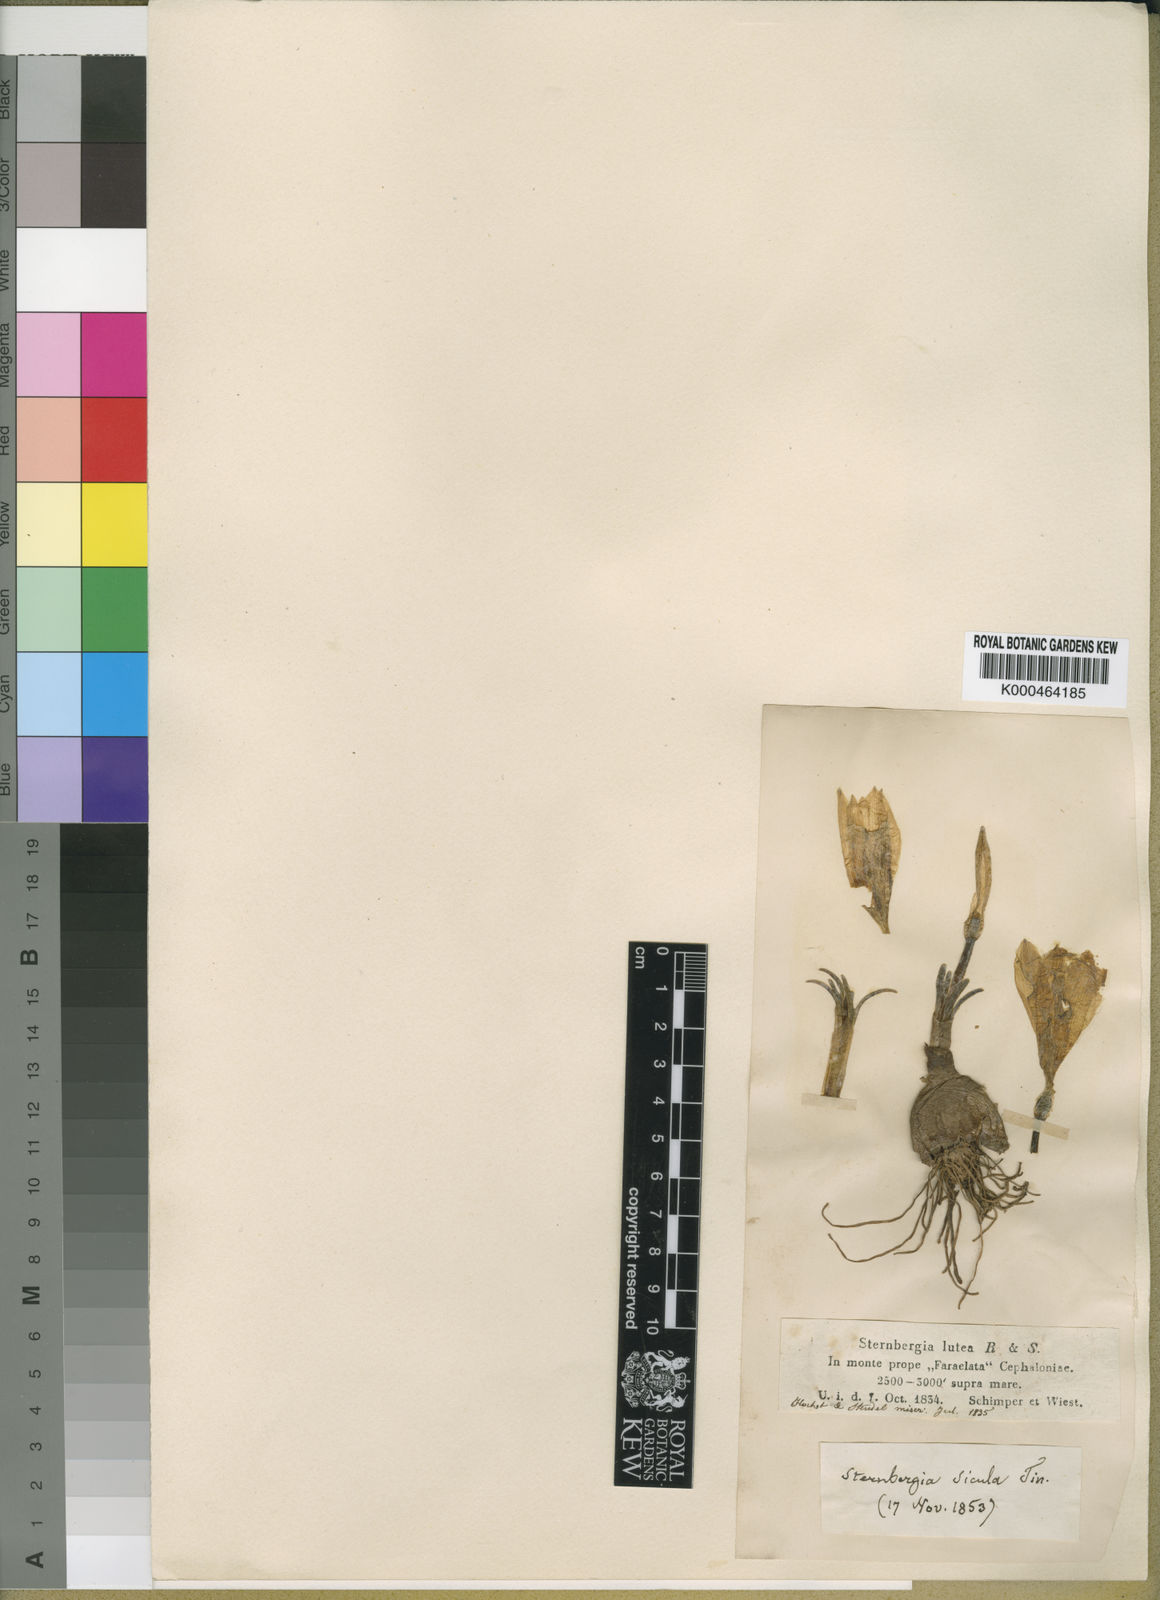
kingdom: Plantae
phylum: Tracheophyta
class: Liliopsida
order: Asparagales
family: Amaryllidaceae
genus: Sternbergia
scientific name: Sternbergia
